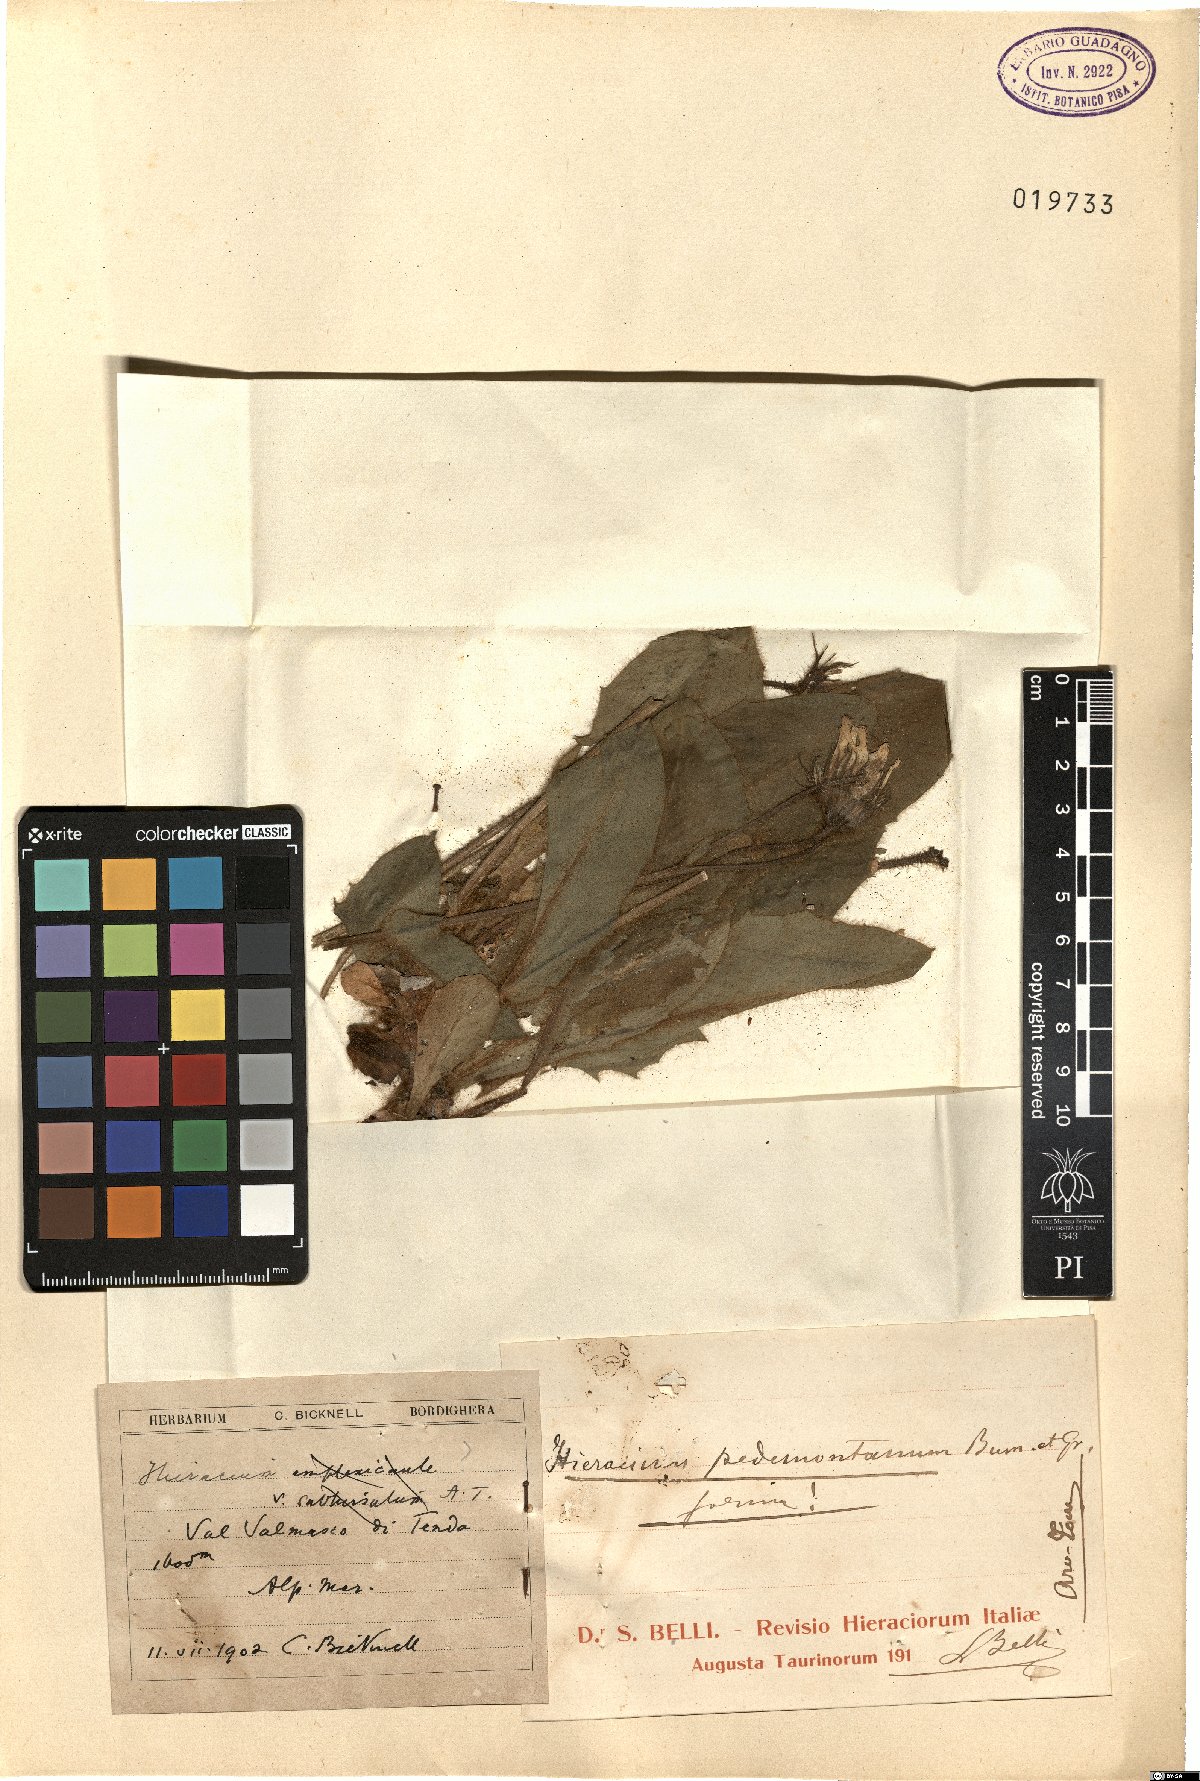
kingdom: Plantae
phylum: Tracheophyta
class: Magnoliopsida
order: Asterales
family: Asteraceae
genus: Hieracium
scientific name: Hieracium pedemontanum
